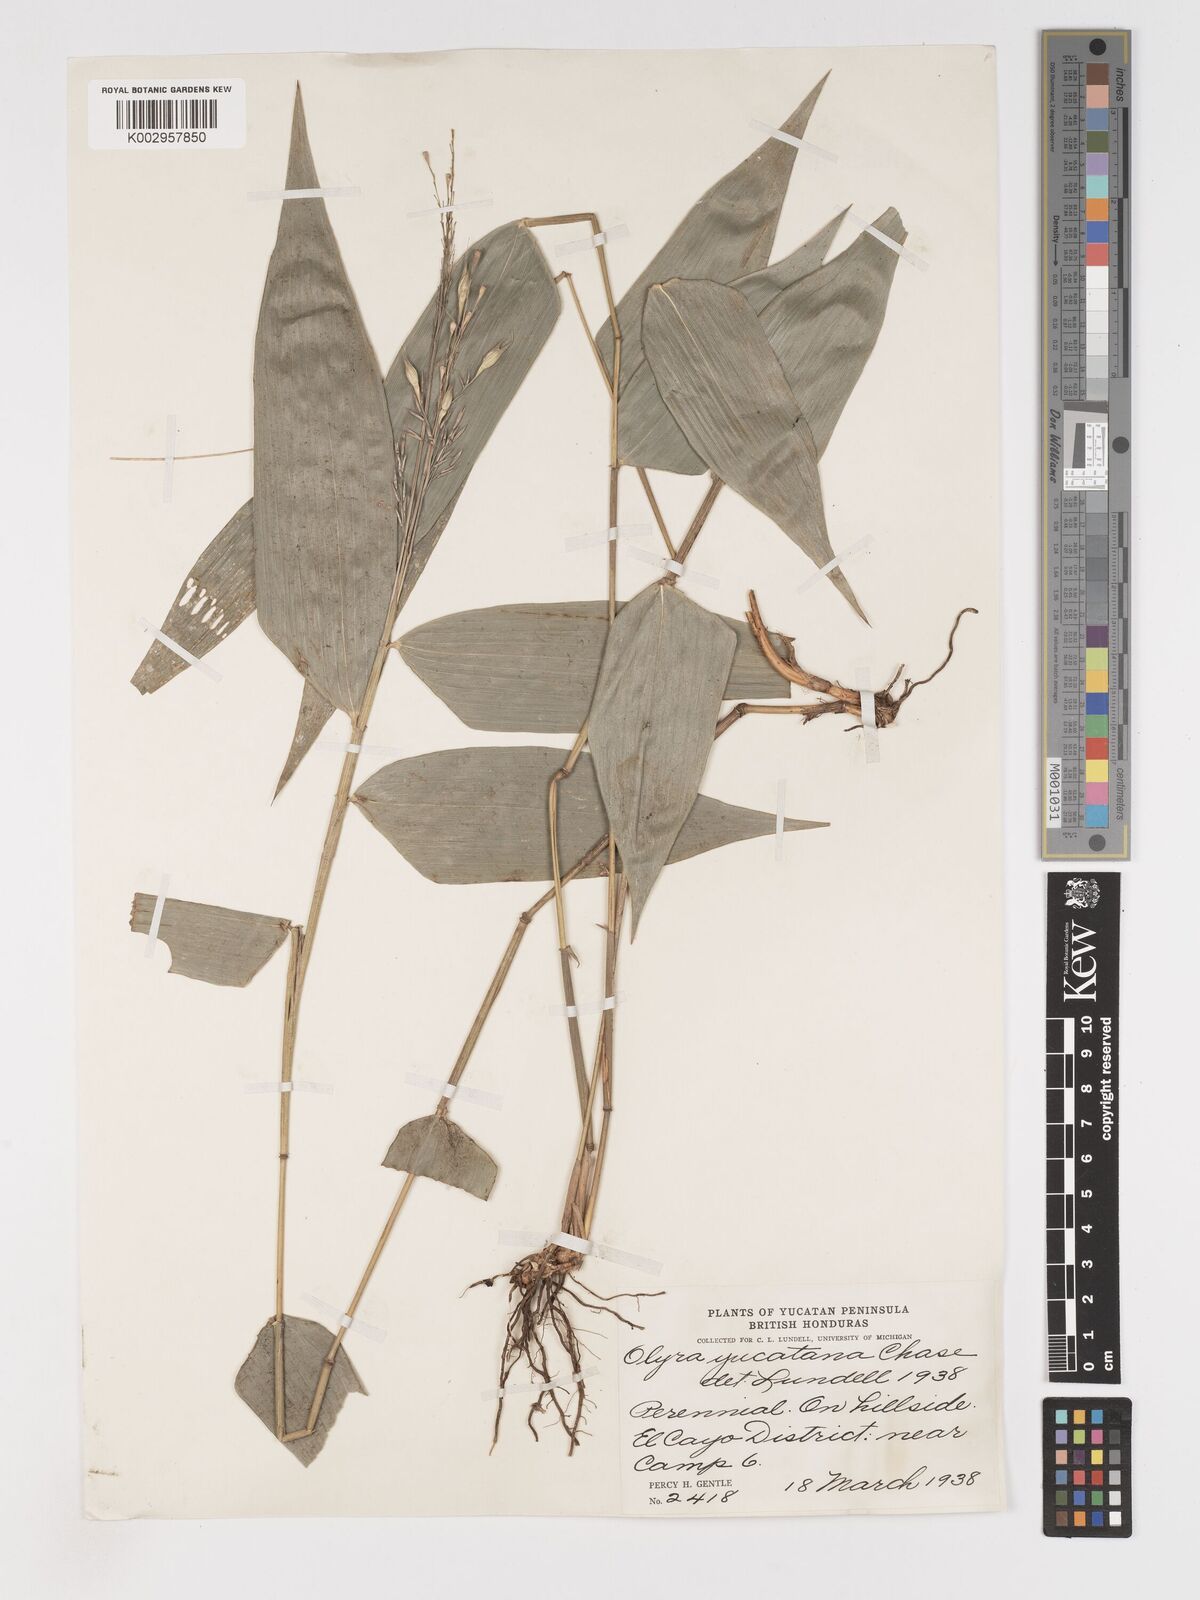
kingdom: Plantae
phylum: Tracheophyta
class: Liliopsida
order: Poales
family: Poaceae
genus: Olyra
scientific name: Olyra glaberrima
